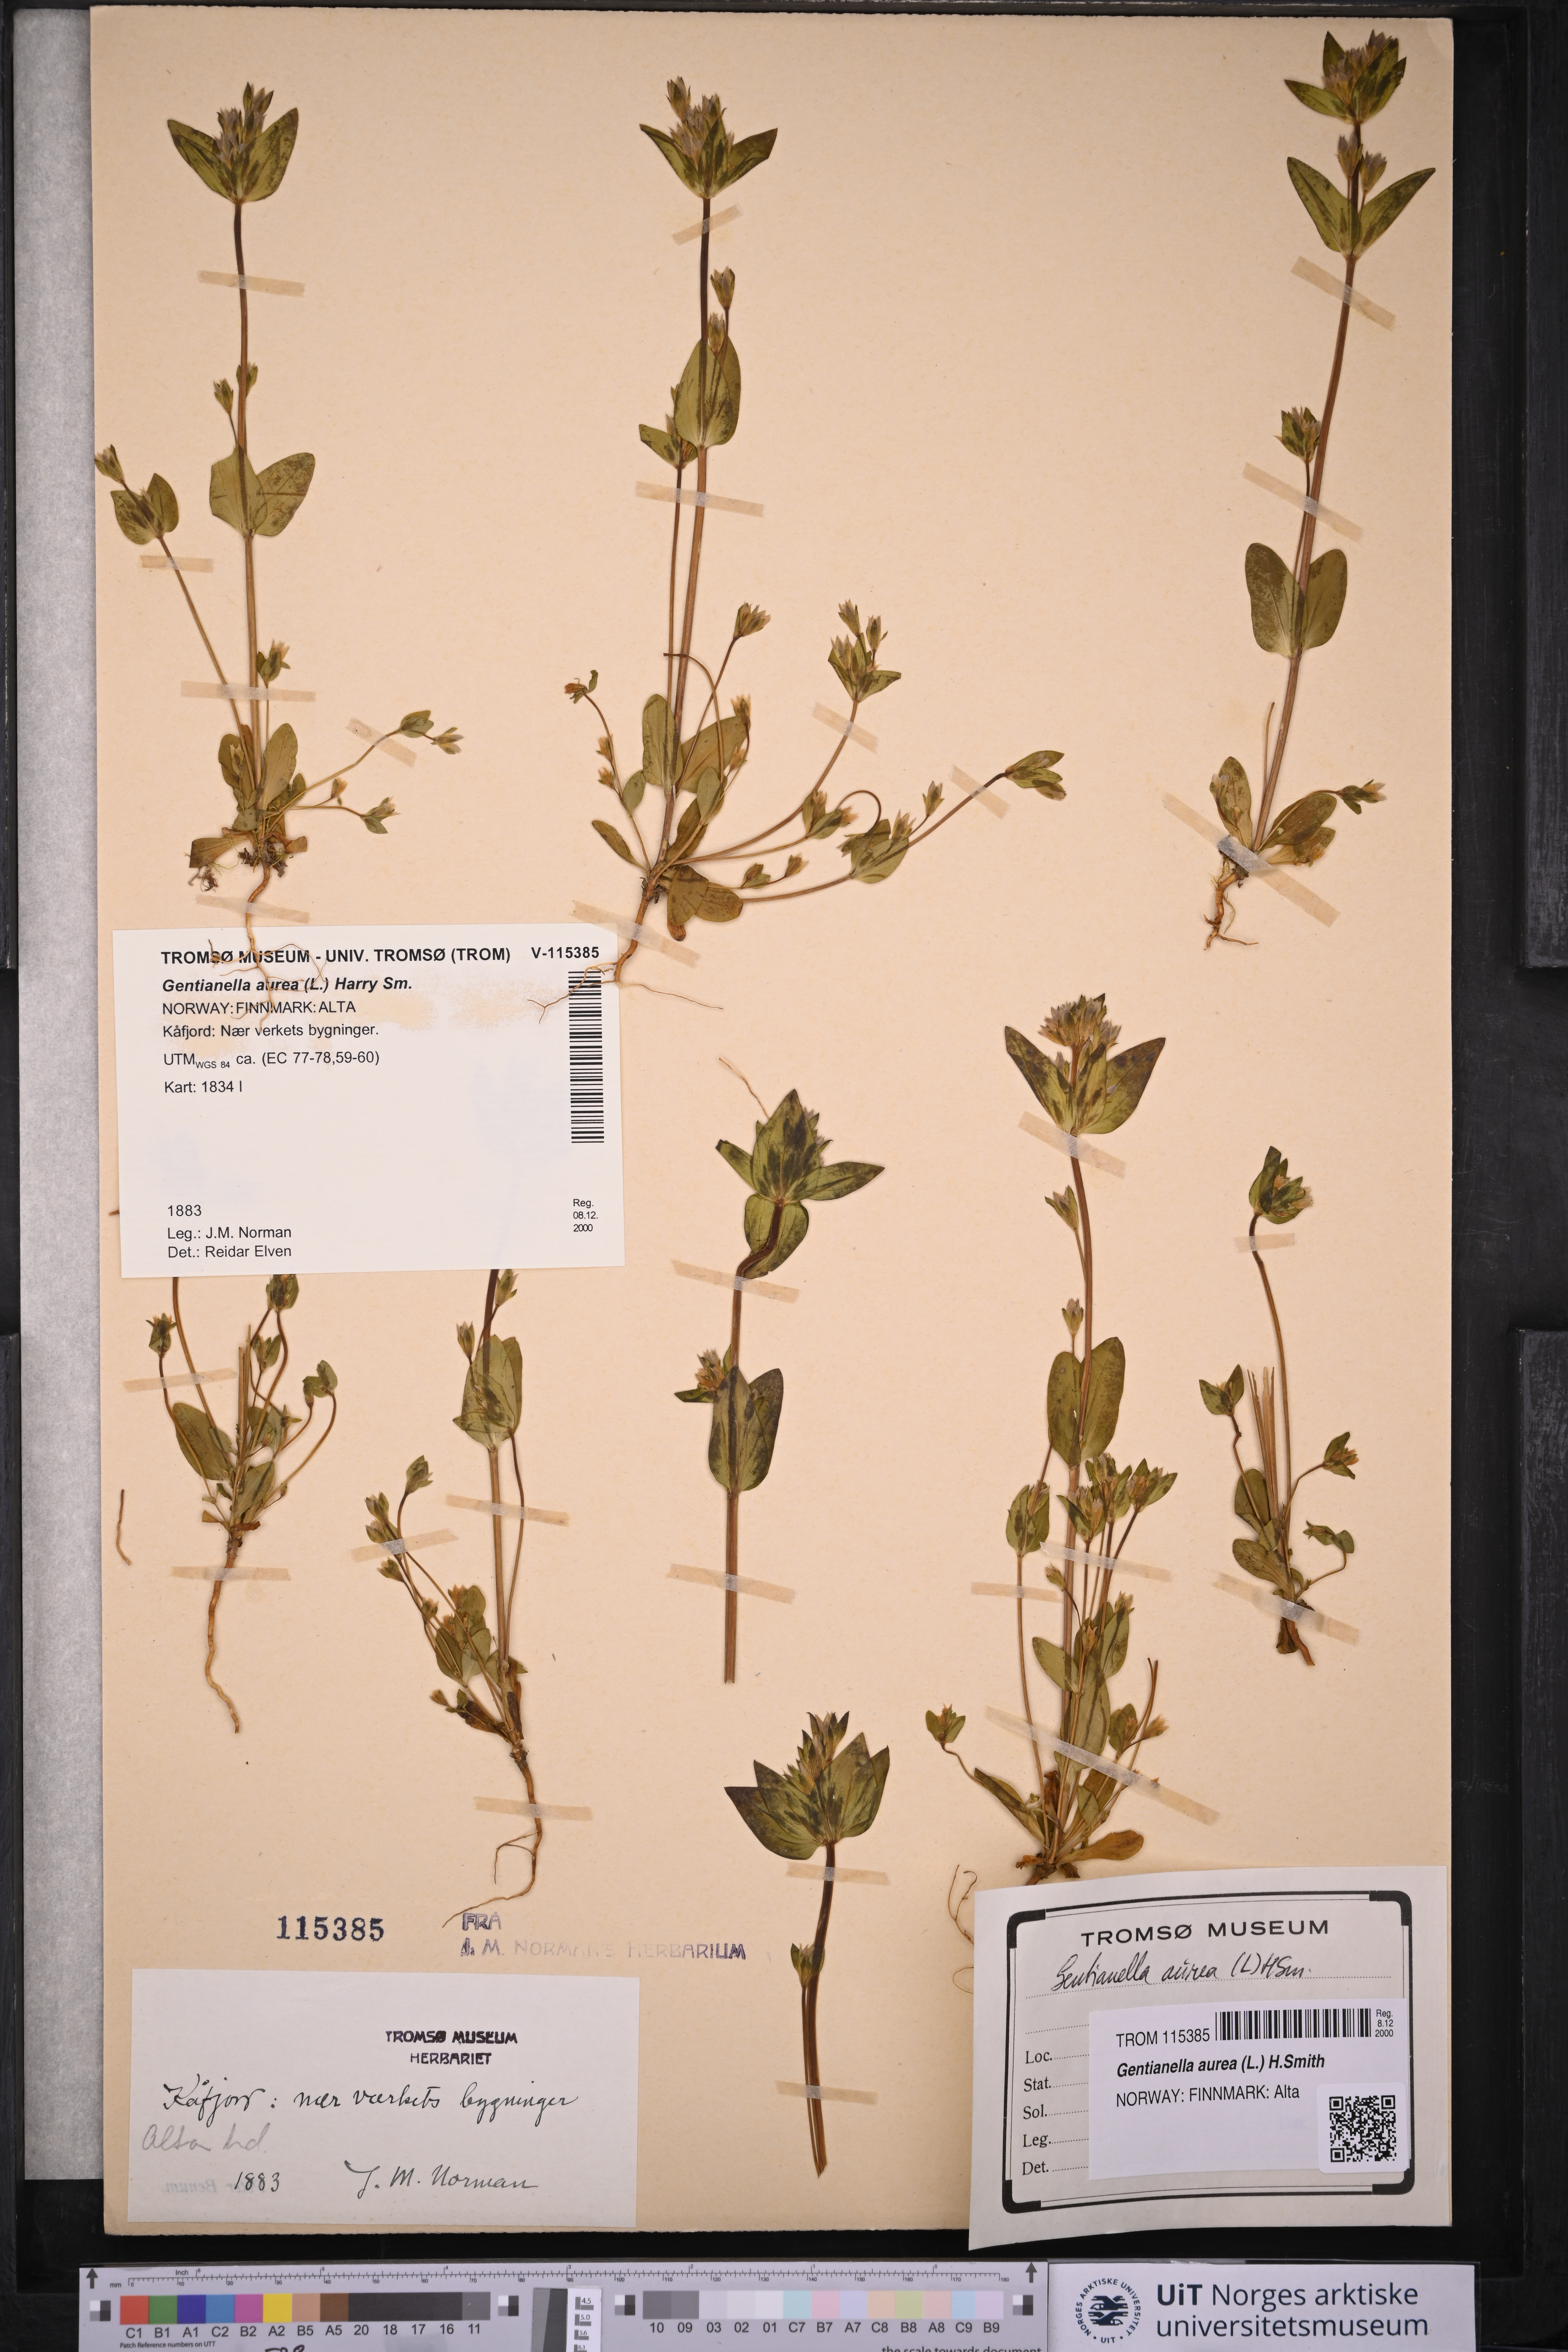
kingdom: Plantae
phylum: Tracheophyta
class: Magnoliopsida
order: Gentianales
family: Gentianaceae
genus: Gentianella
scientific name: Gentianella aurea
